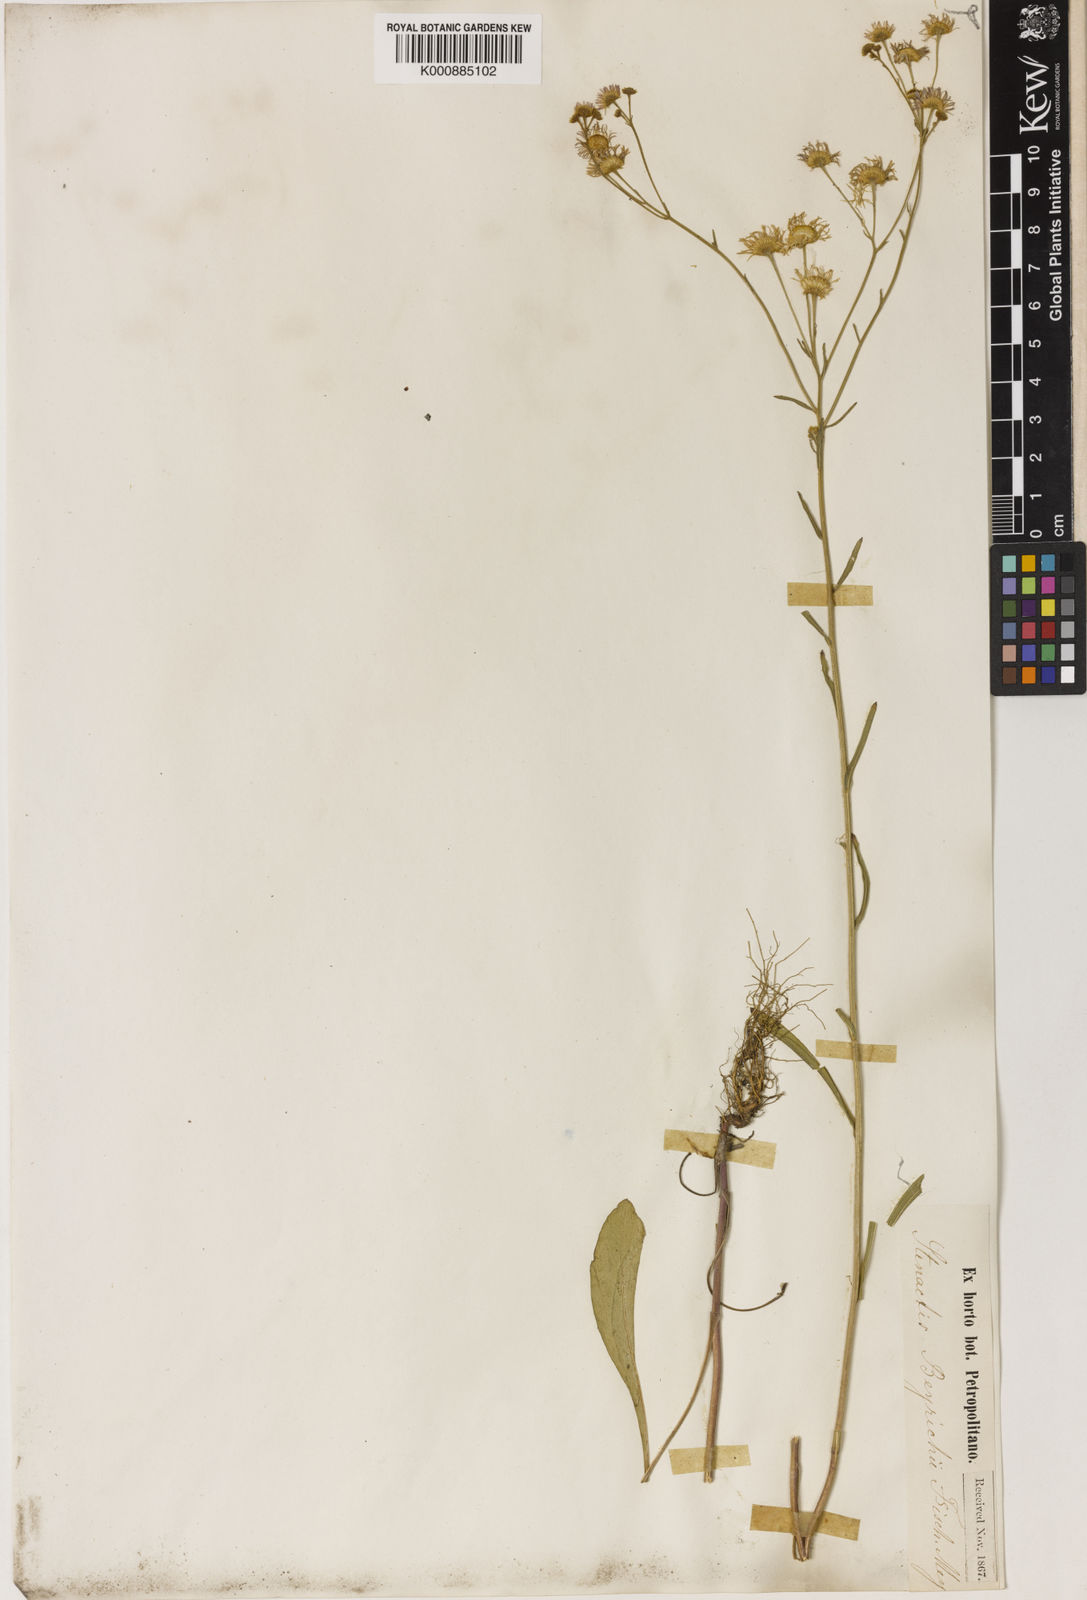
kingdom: Plantae
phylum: Tracheophyta
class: Magnoliopsida
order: Asterales
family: Asteraceae
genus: Erigeron
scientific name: Erigeron annuus
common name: Tall fleabane
